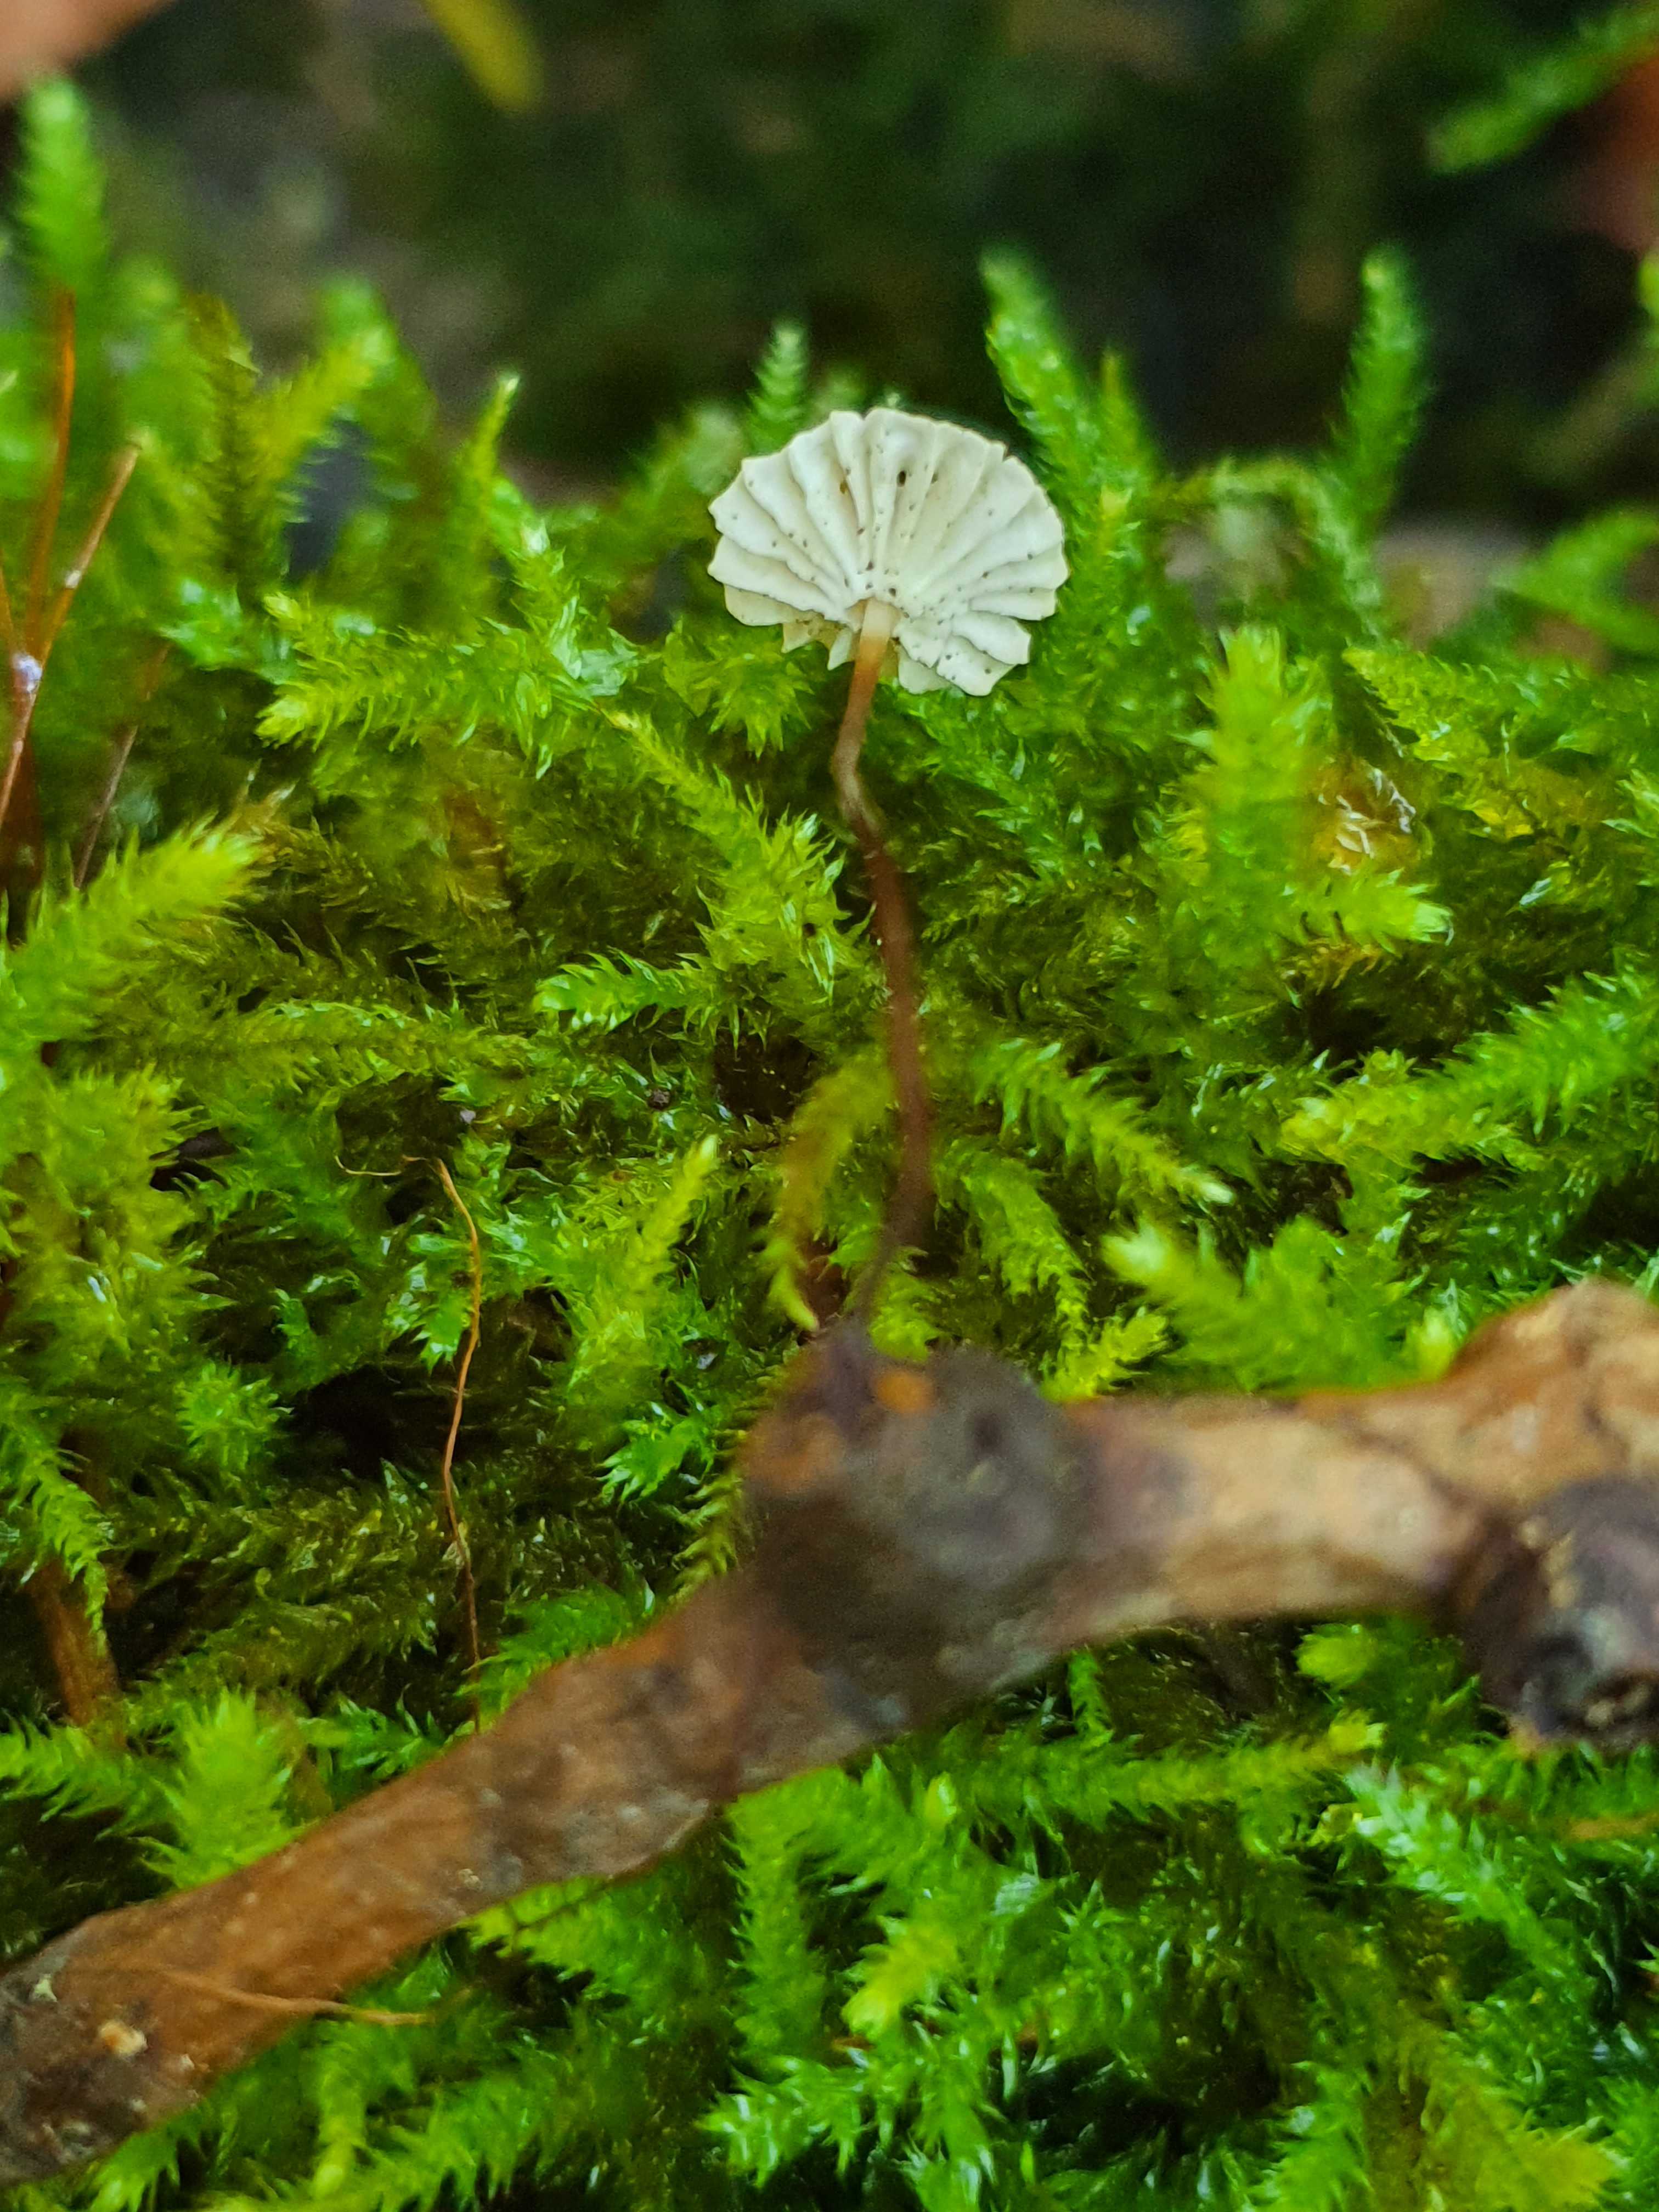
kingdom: Fungi
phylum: Basidiomycota
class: Agaricomycetes
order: Agaricales
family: Marasmiaceae
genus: Marasmius
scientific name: Marasmius rotula
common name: hjul-bruskhat
